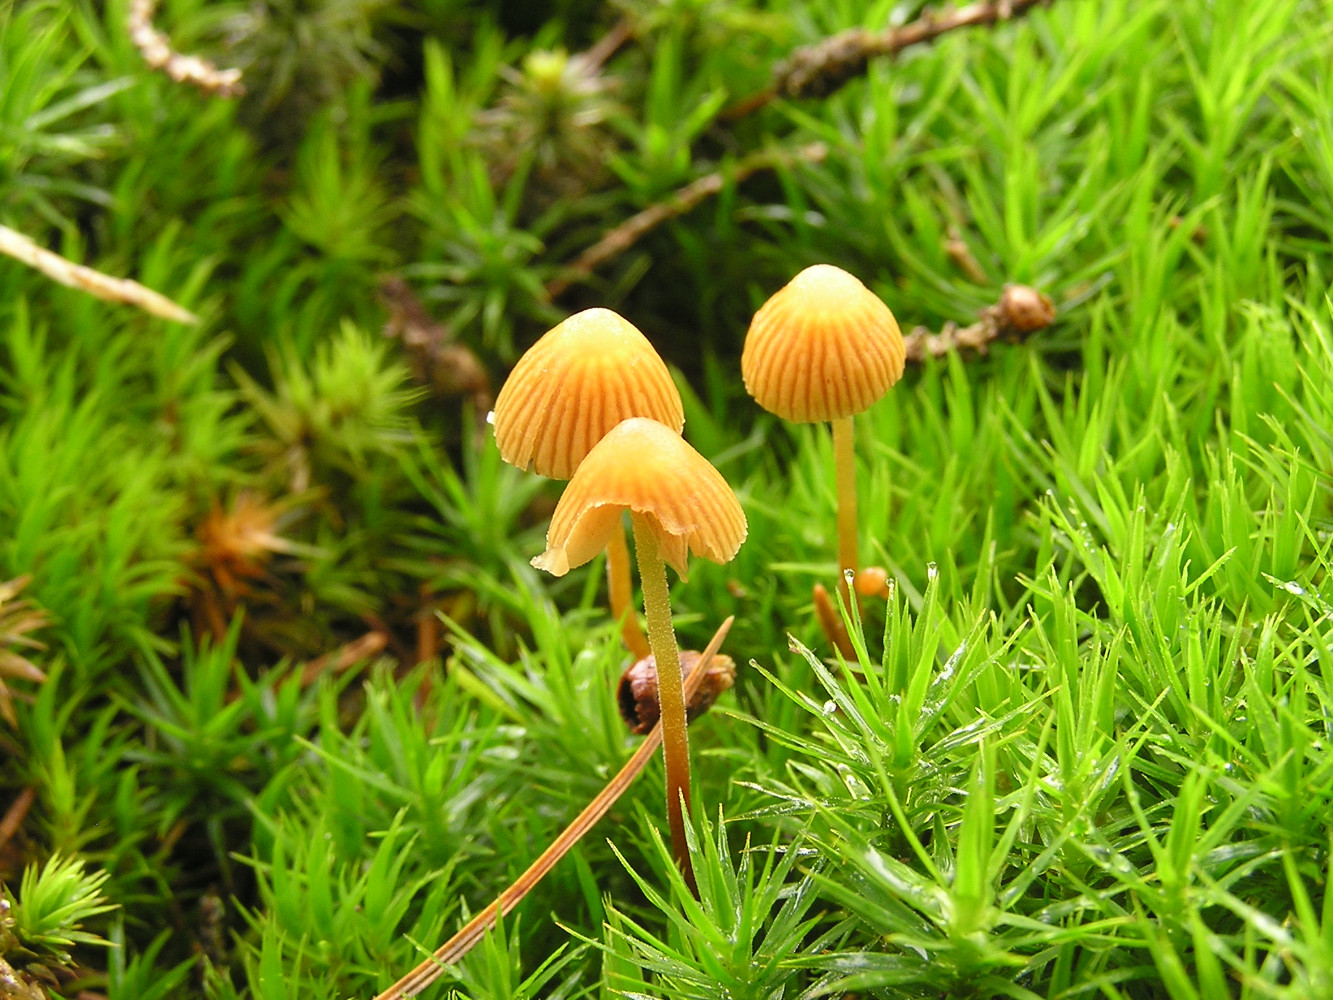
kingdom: Fungi
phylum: Basidiomycota
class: Agaricomycetes
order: Agaricales
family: Hymenogastraceae
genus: Galerina
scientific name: Galerina atkinsoniana
